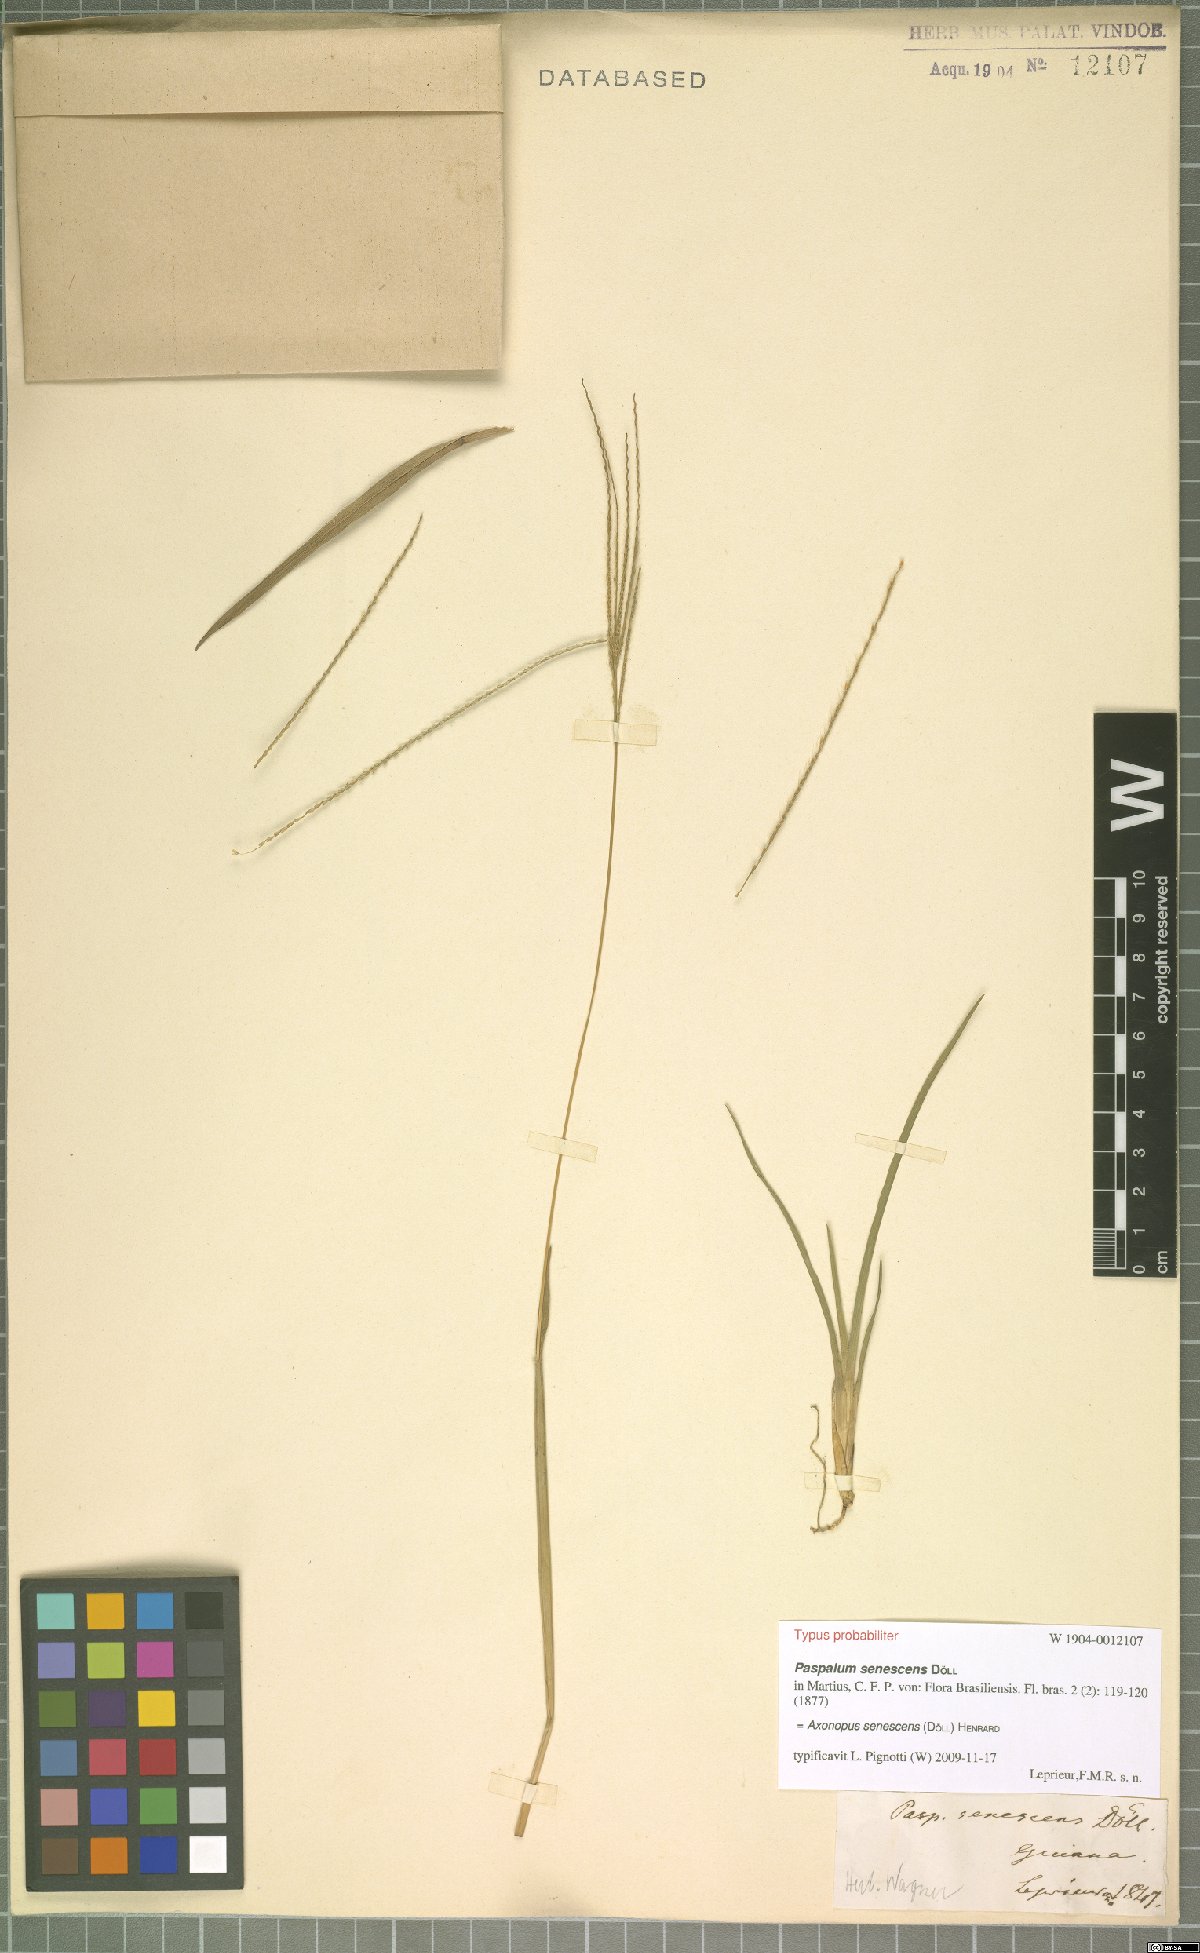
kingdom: Plantae
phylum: Tracheophyta
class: Liliopsida
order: Poales
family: Poaceae
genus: Axonopus
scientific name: Axonopus senescens
